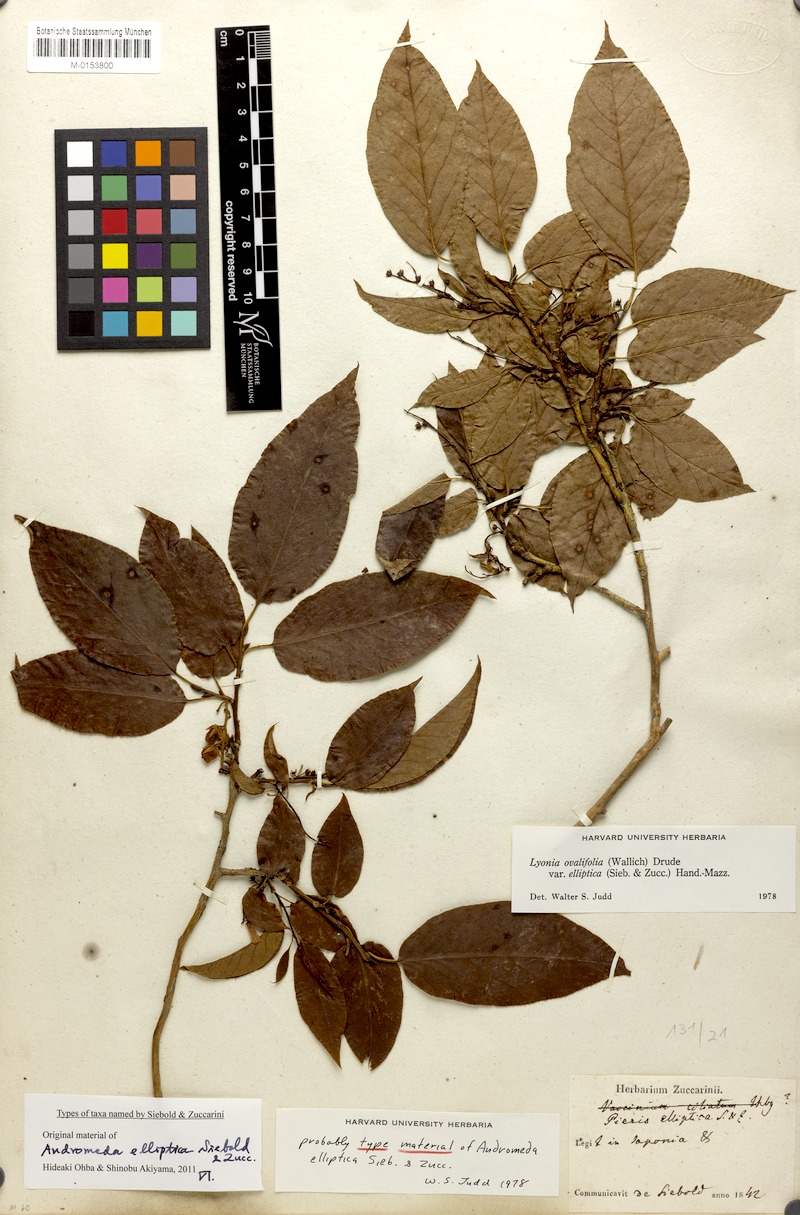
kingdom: Plantae
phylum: Tracheophyta
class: Magnoliopsida
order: Ericales
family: Ericaceae
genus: Lyonia
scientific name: Lyonia ovalifolia
